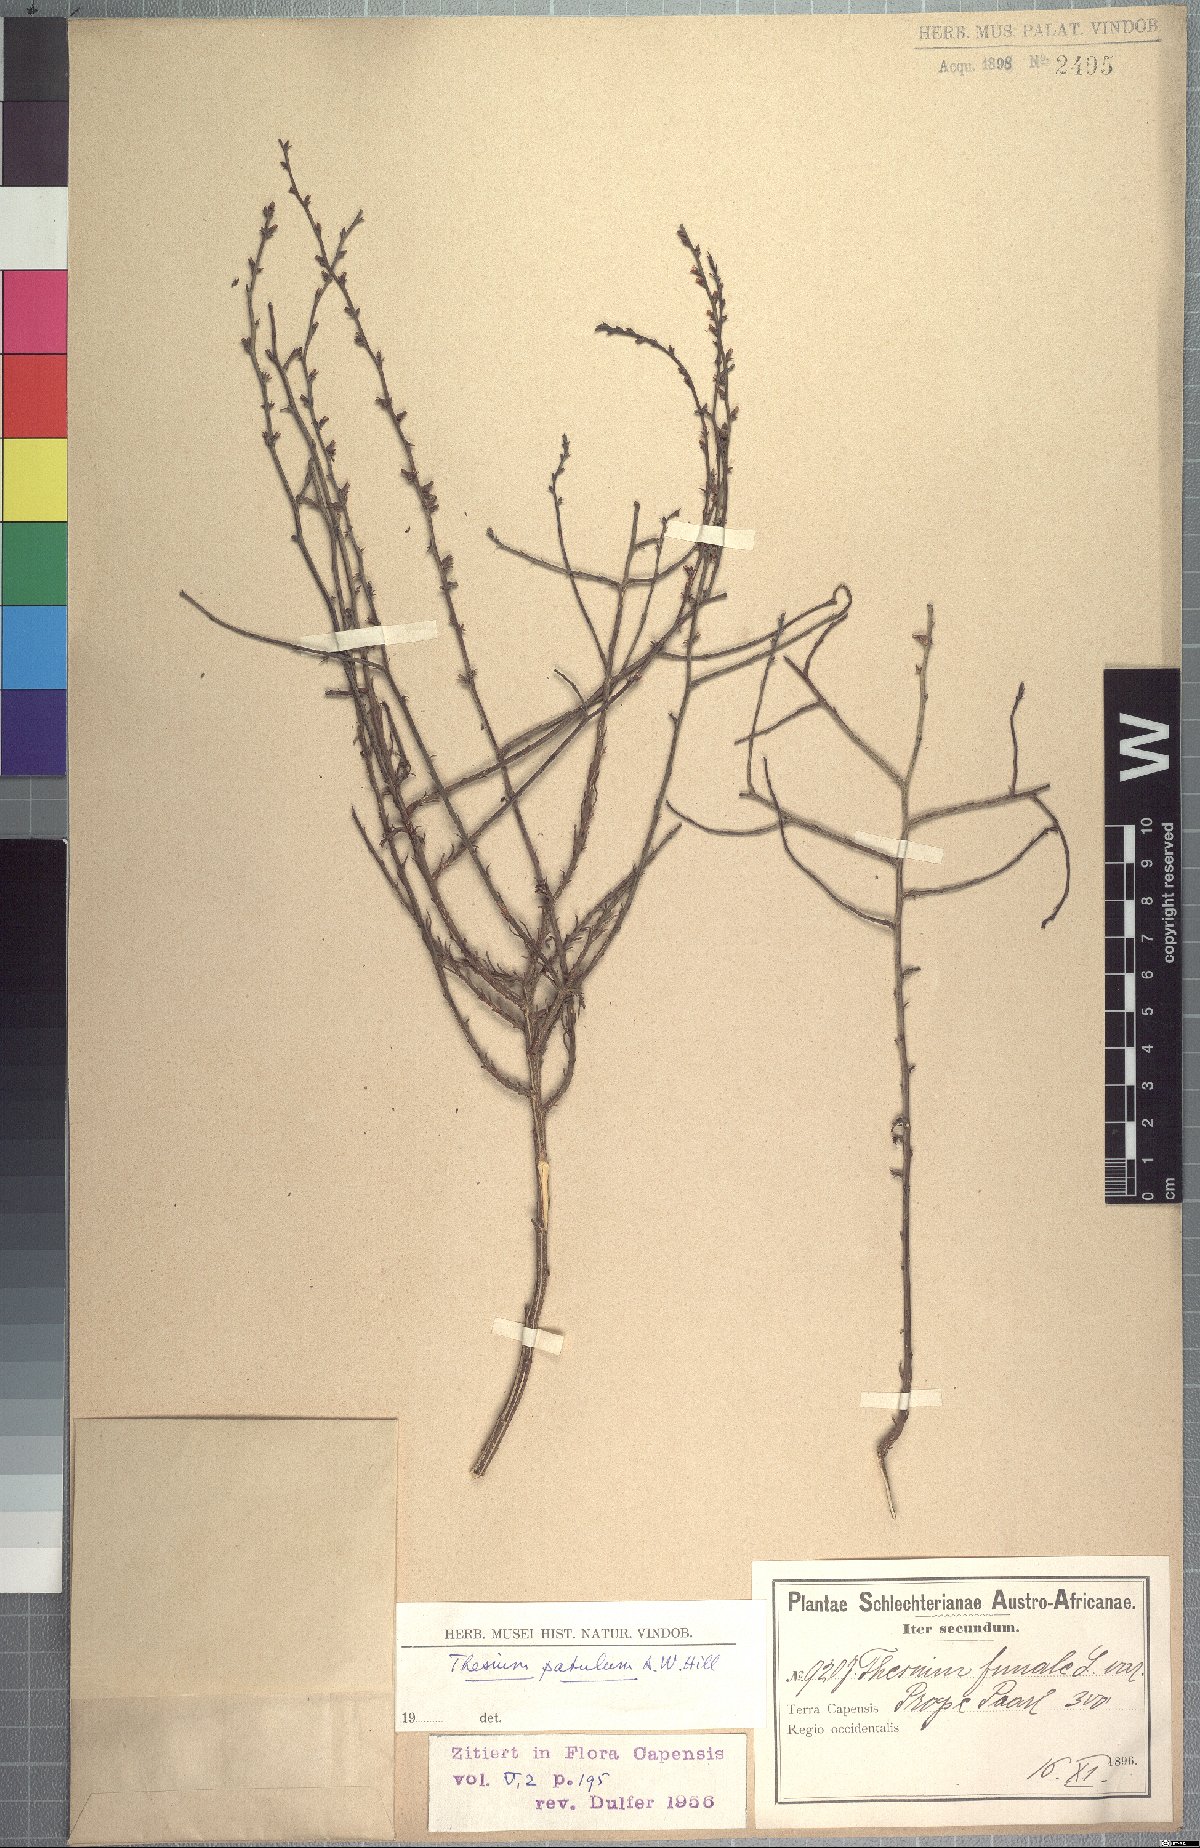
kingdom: Plantae
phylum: Tracheophyta
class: Magnoliopsida
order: Santalales
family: Thesiaceae
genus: Thesium
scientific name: Thesium patulum
